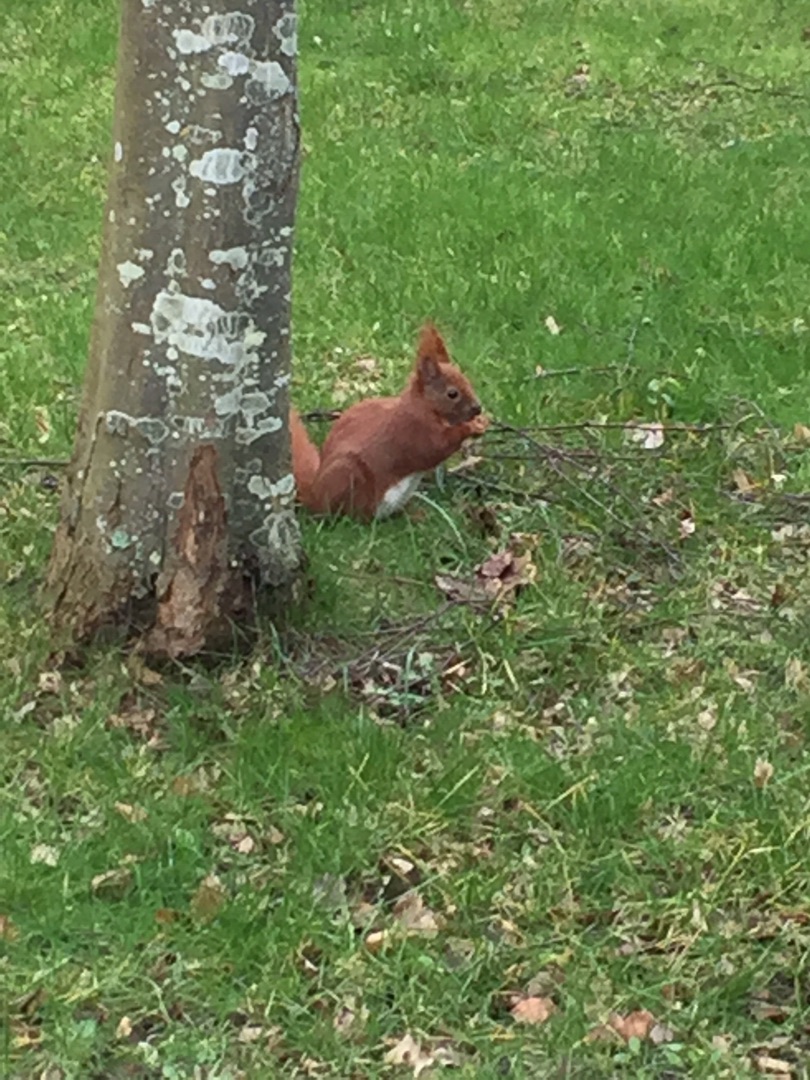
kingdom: Animalia
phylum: Chordata
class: Mammalia
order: Rodentia
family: Sciuridae
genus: Sciurus
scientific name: Sciurus vulgaris
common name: Egern
